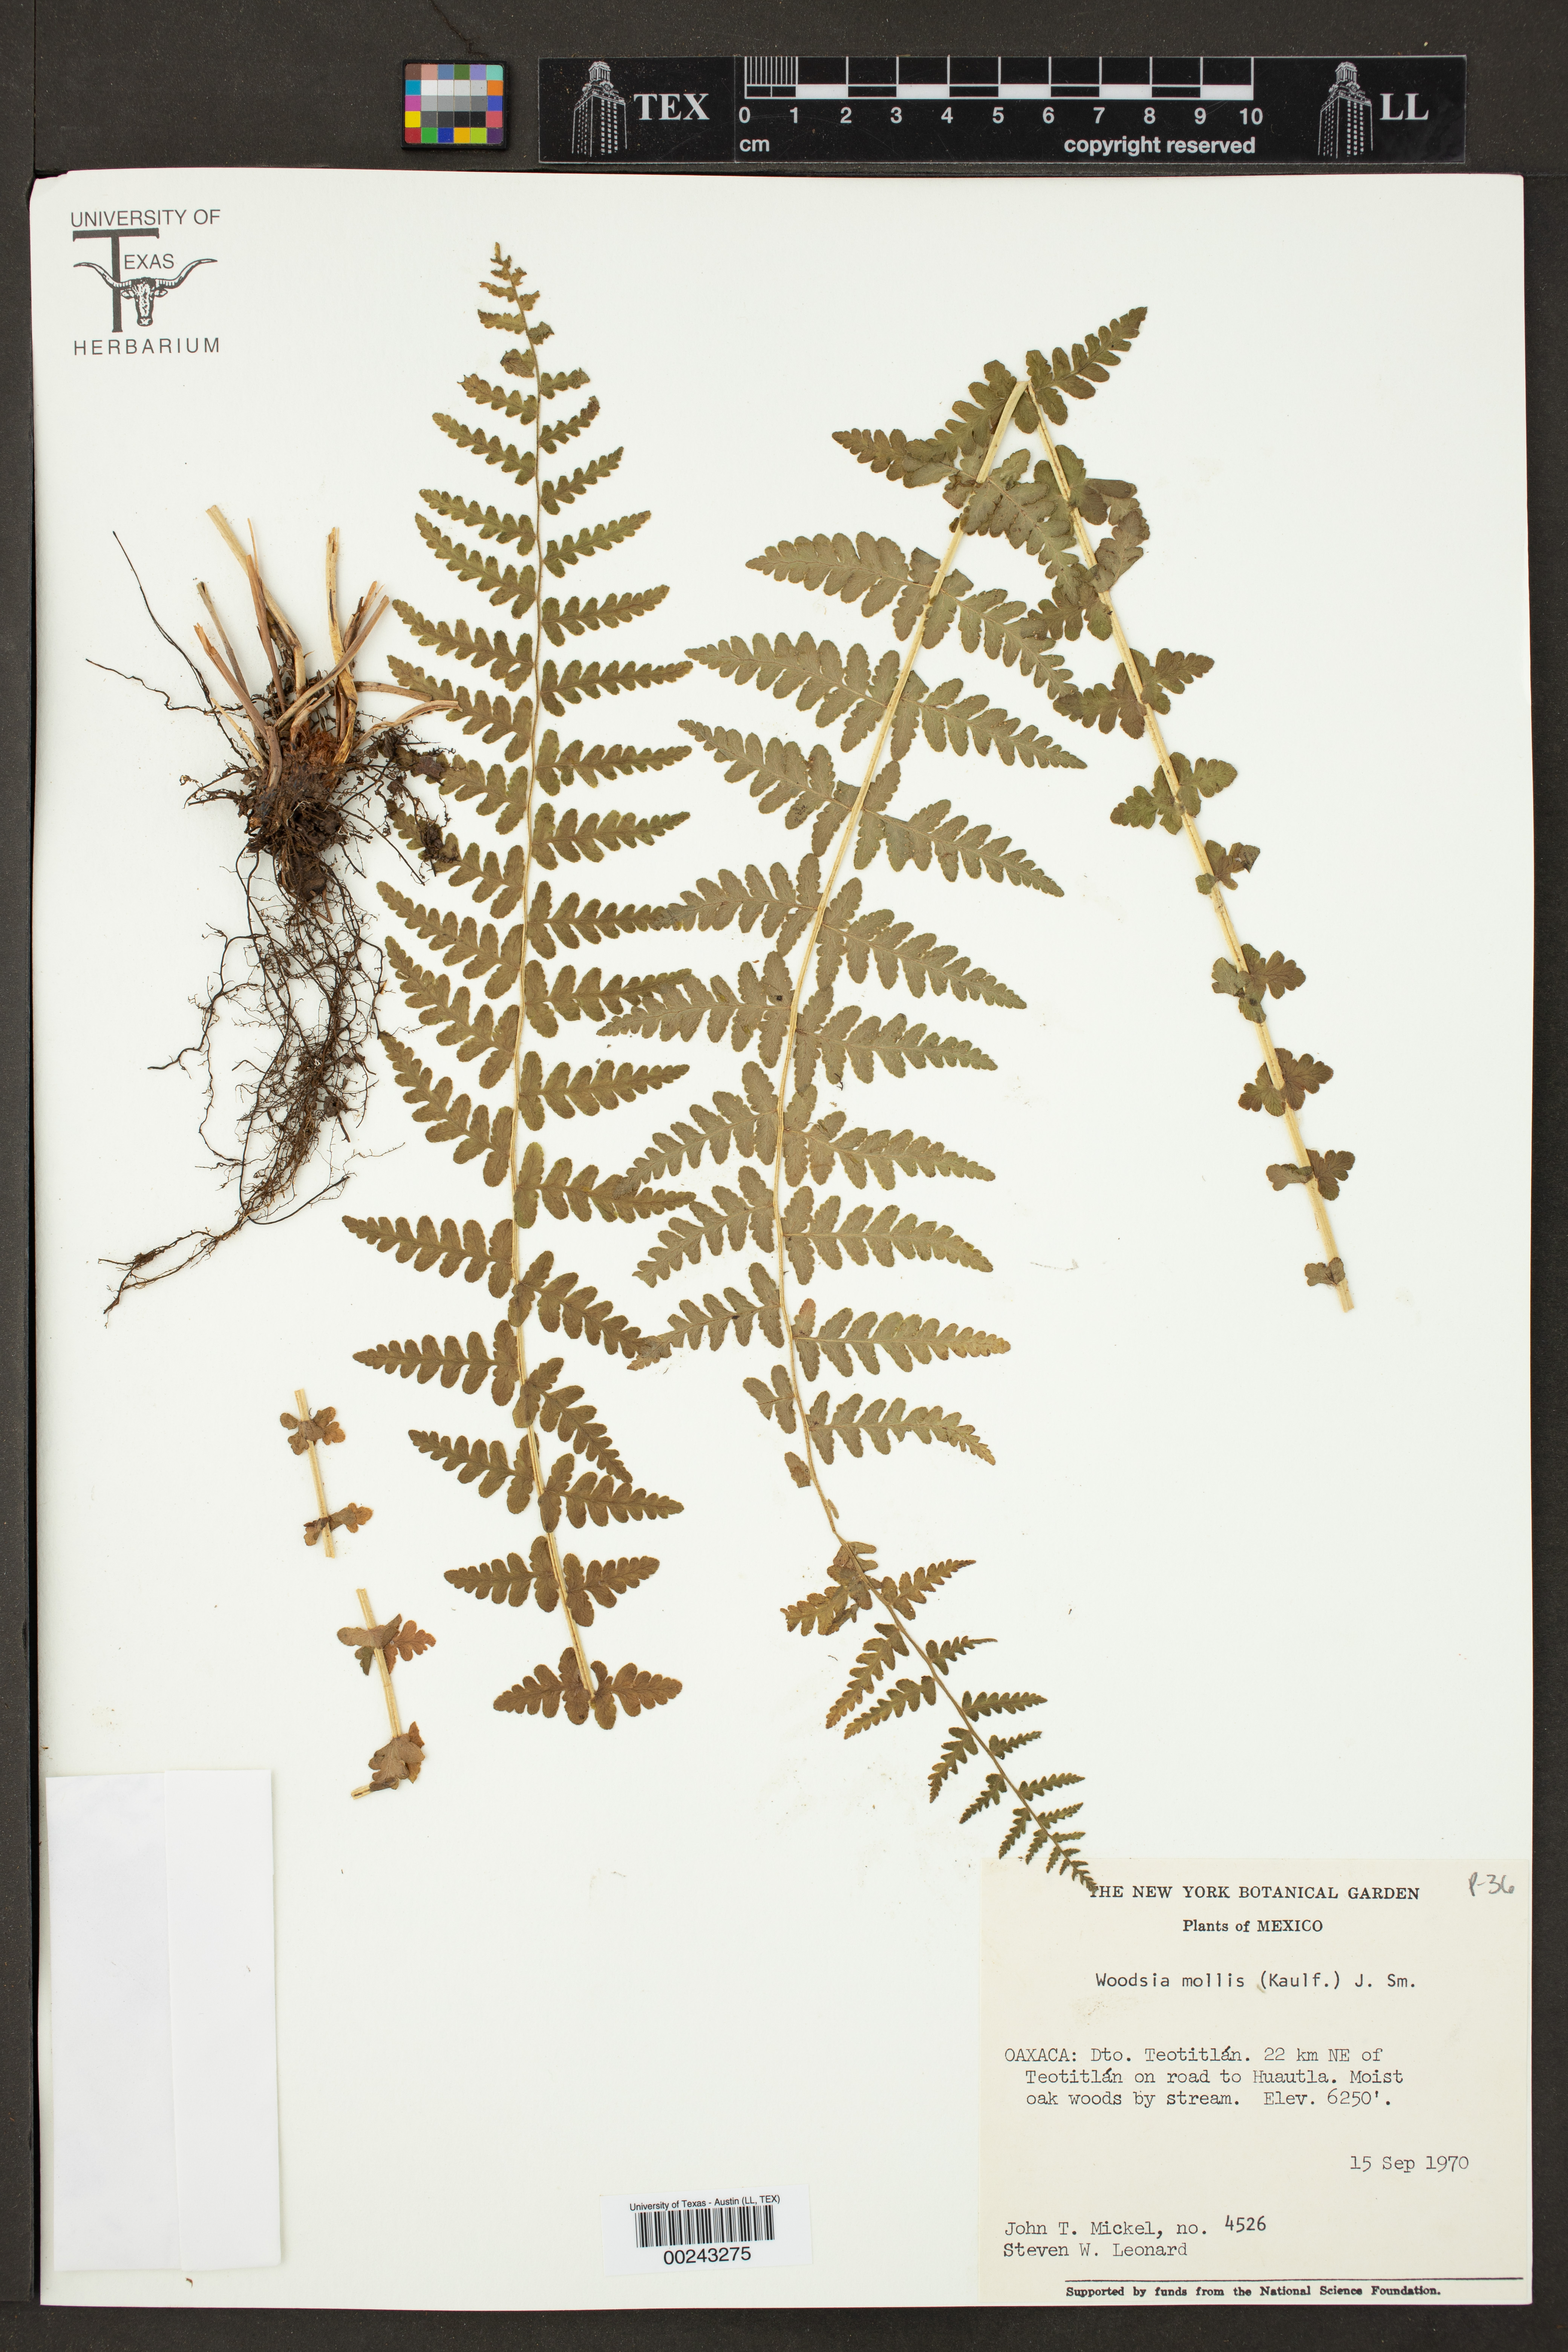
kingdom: Plantae
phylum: Tracheophyta
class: Polypodiopsida
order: Polypodiales
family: Woodsiaceae
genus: Physematium
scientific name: Physematium molle
